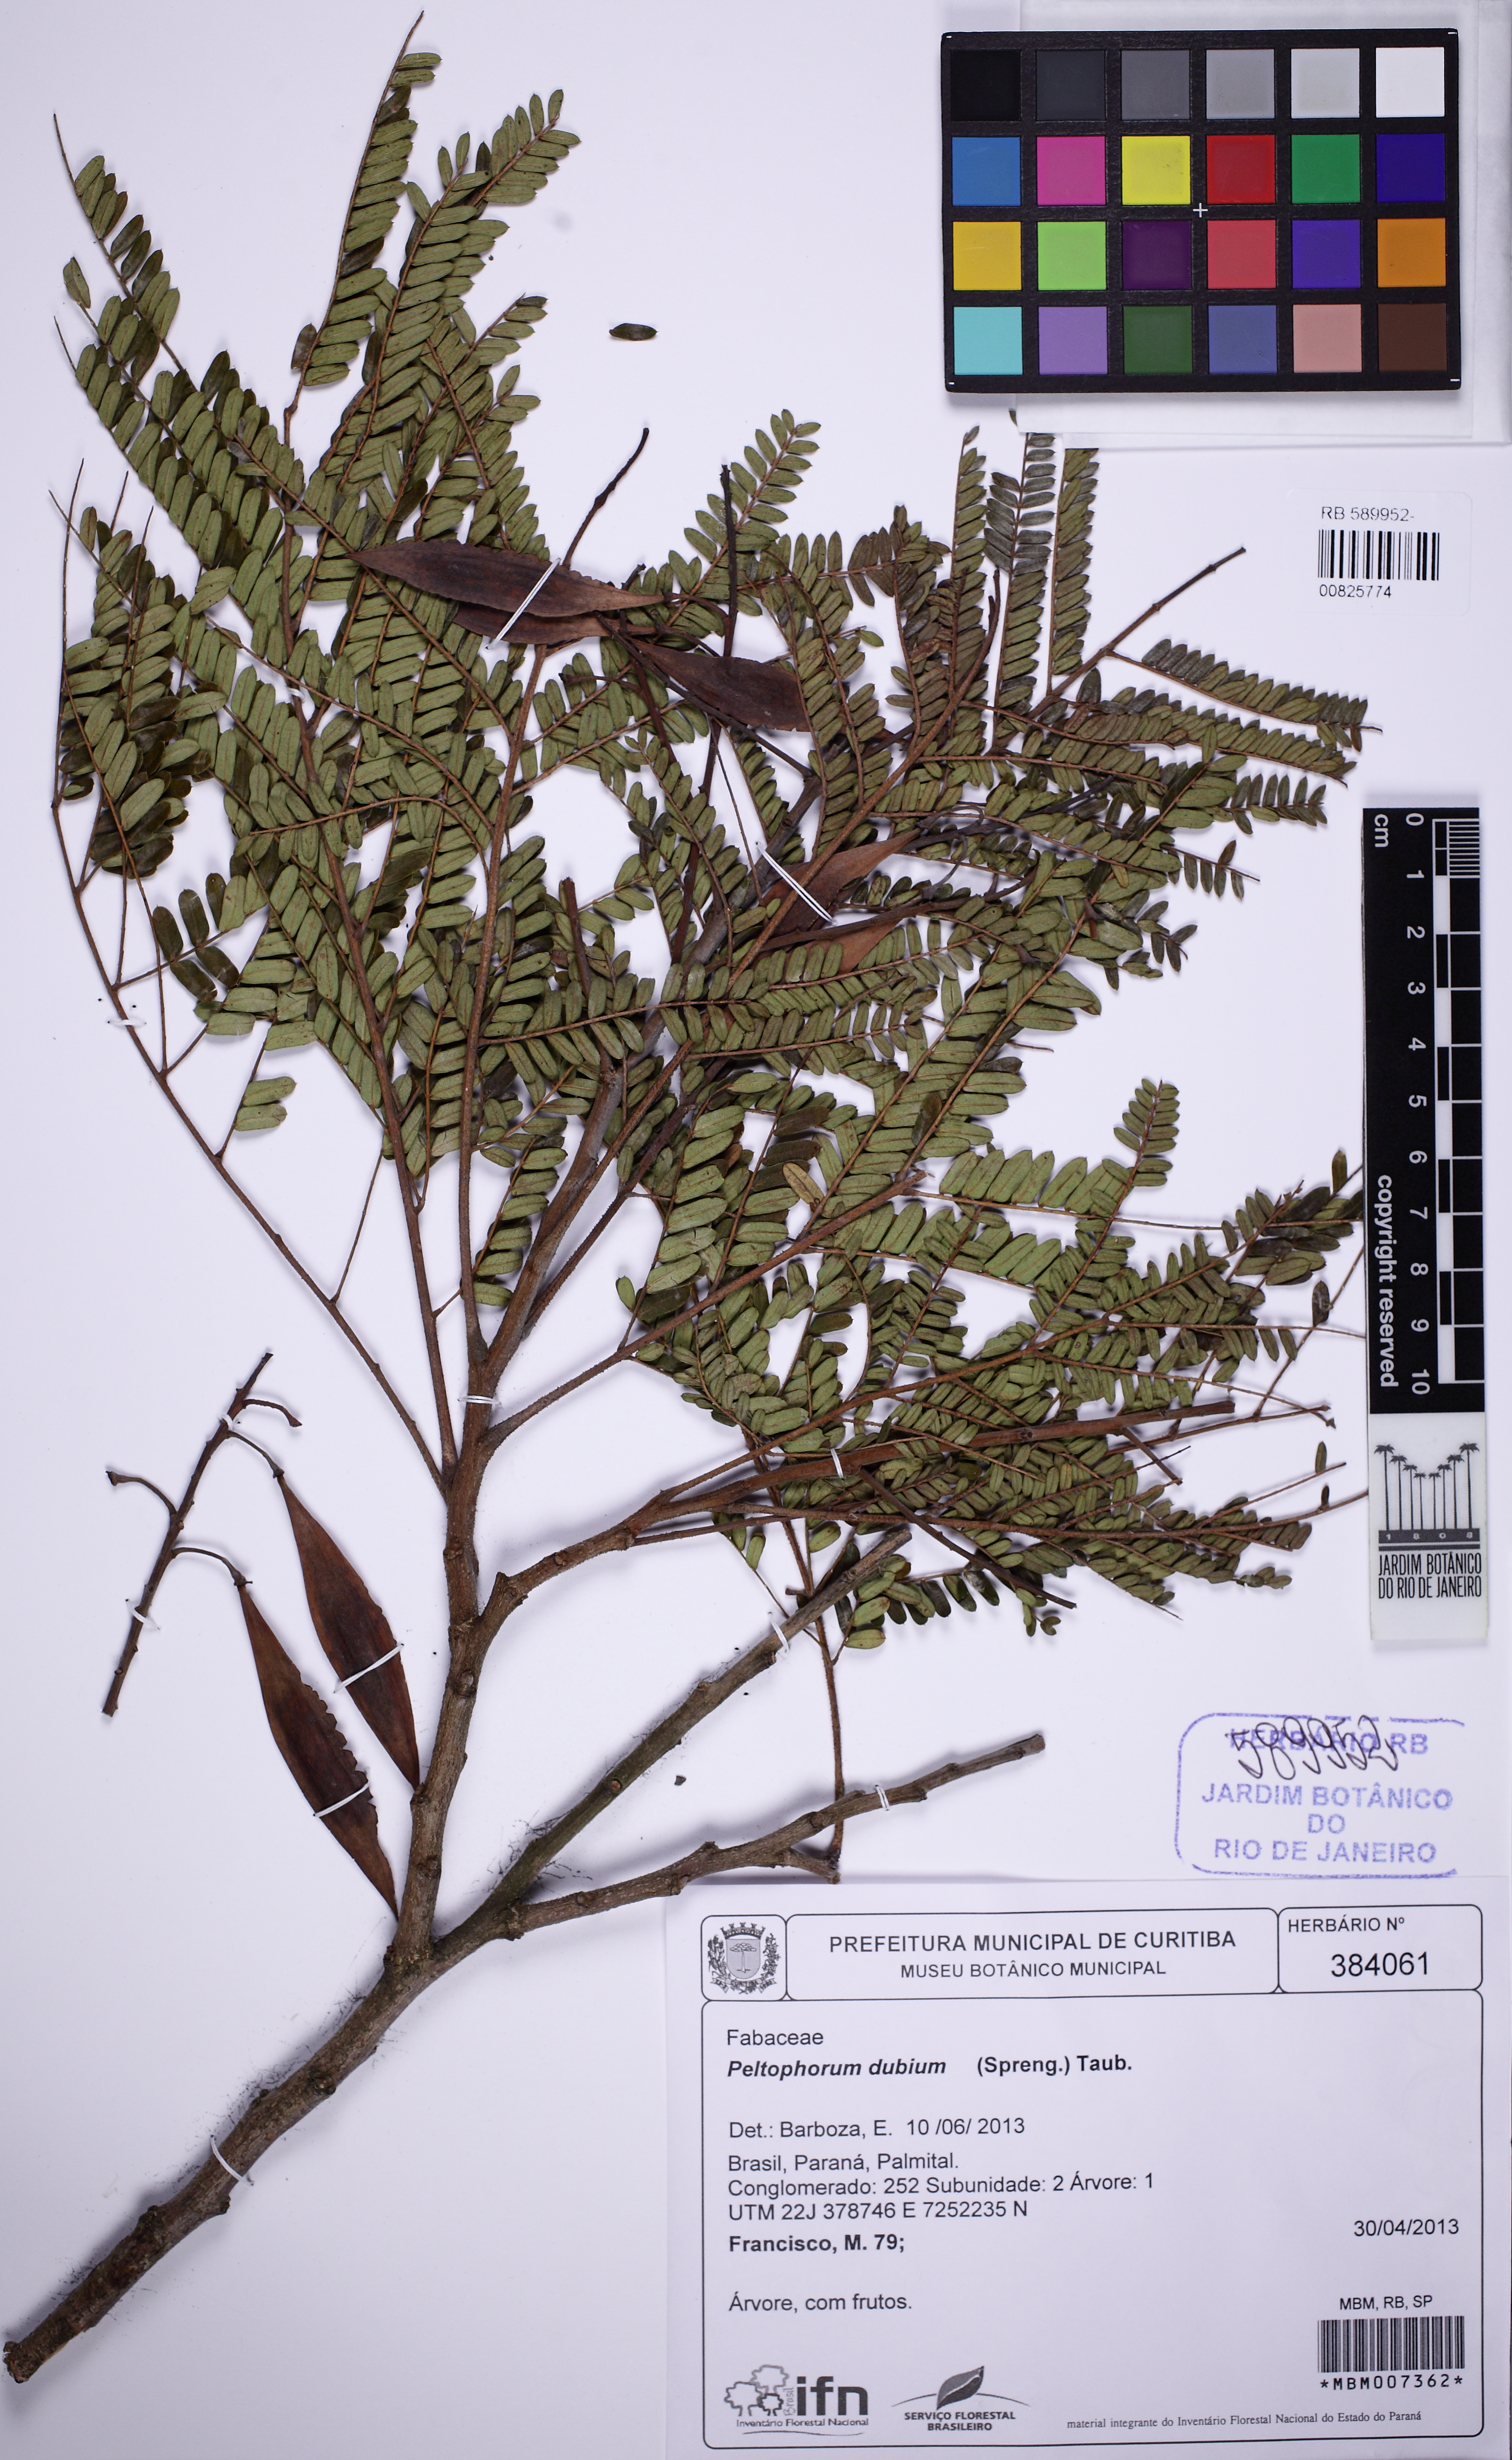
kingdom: Plantae
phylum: Tracheophyta
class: Magnoliopsida
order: Fabales
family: Fabaceae
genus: Peltophorum
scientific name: Peltophorum dubium
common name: Horsebush
